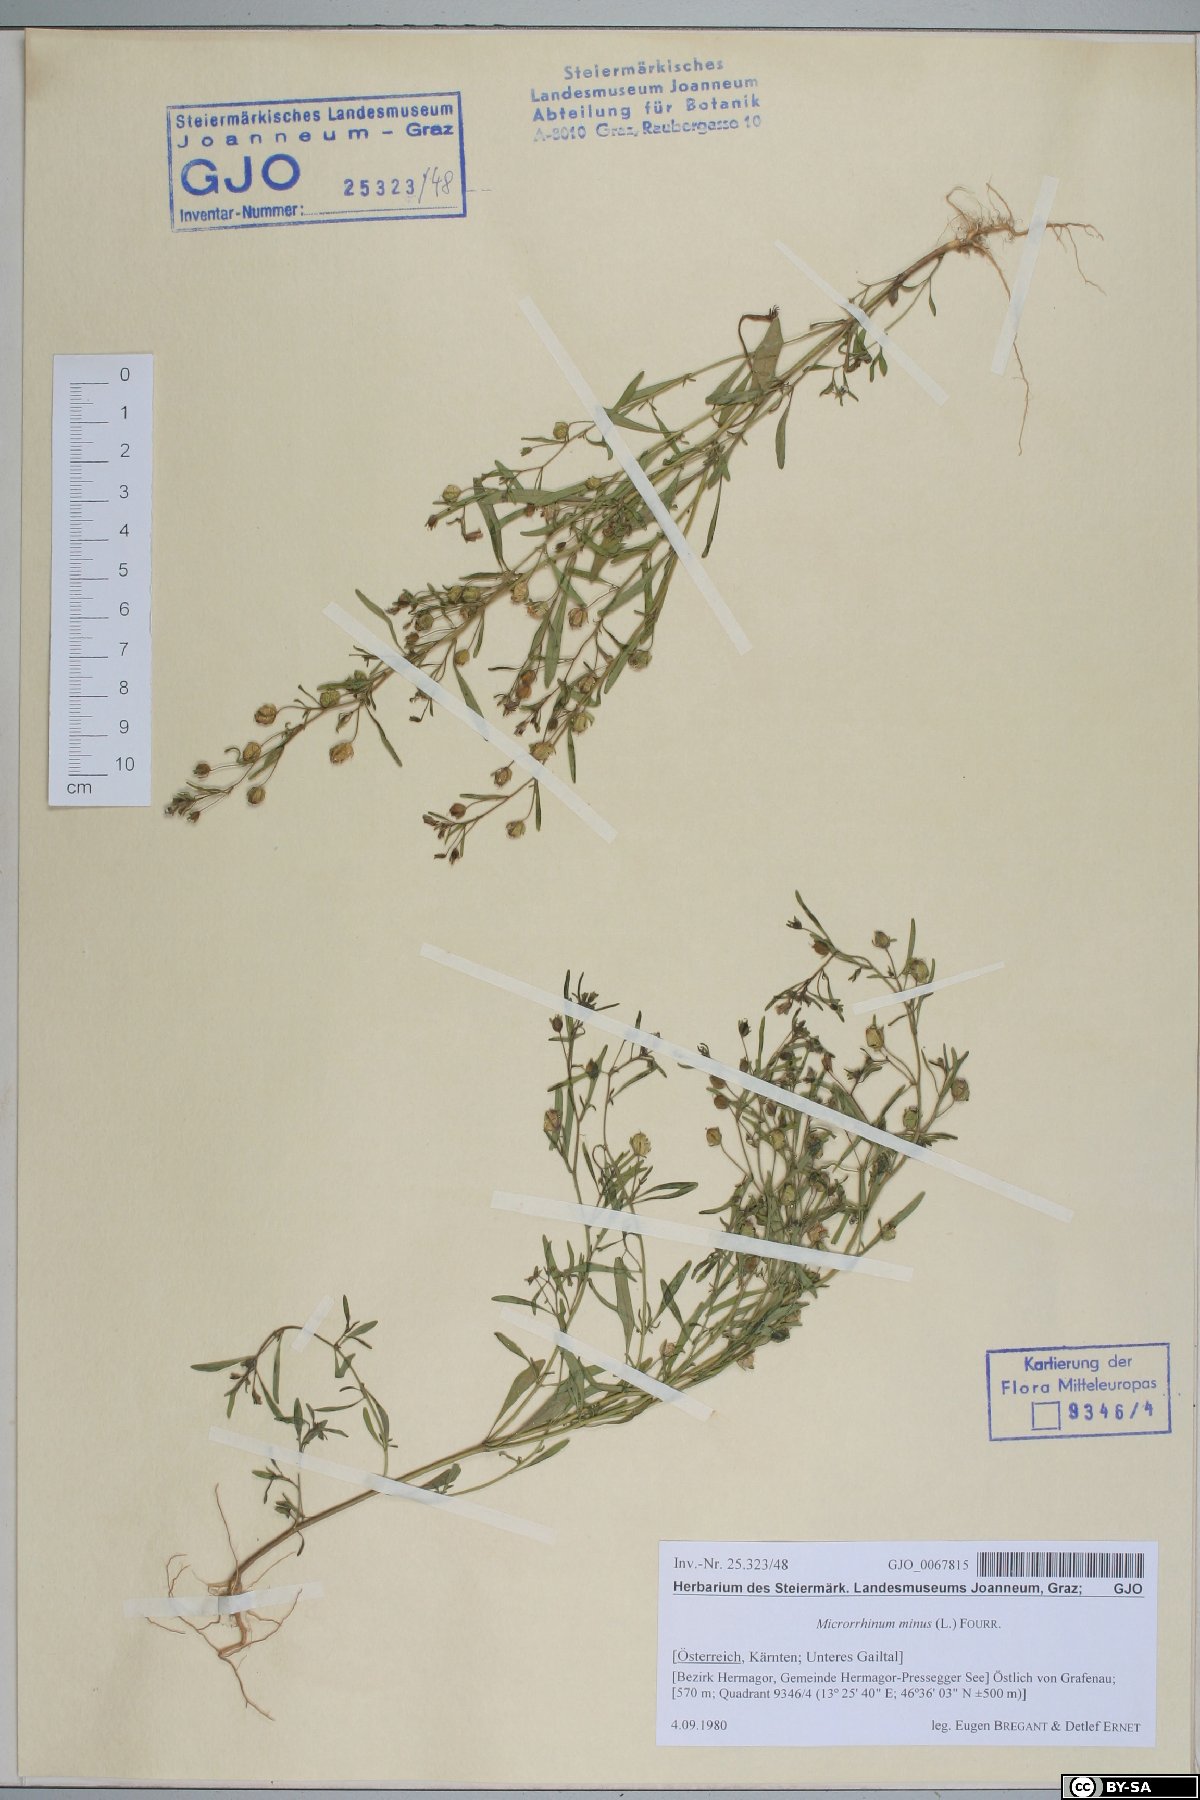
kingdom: Plantae
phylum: Tracheophyta
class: Magnoliopsida
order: Lamiales
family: Plantaginaceae
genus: Chaenorhinum
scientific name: Chaenorhinum minus
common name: Dwarf snapdragon
